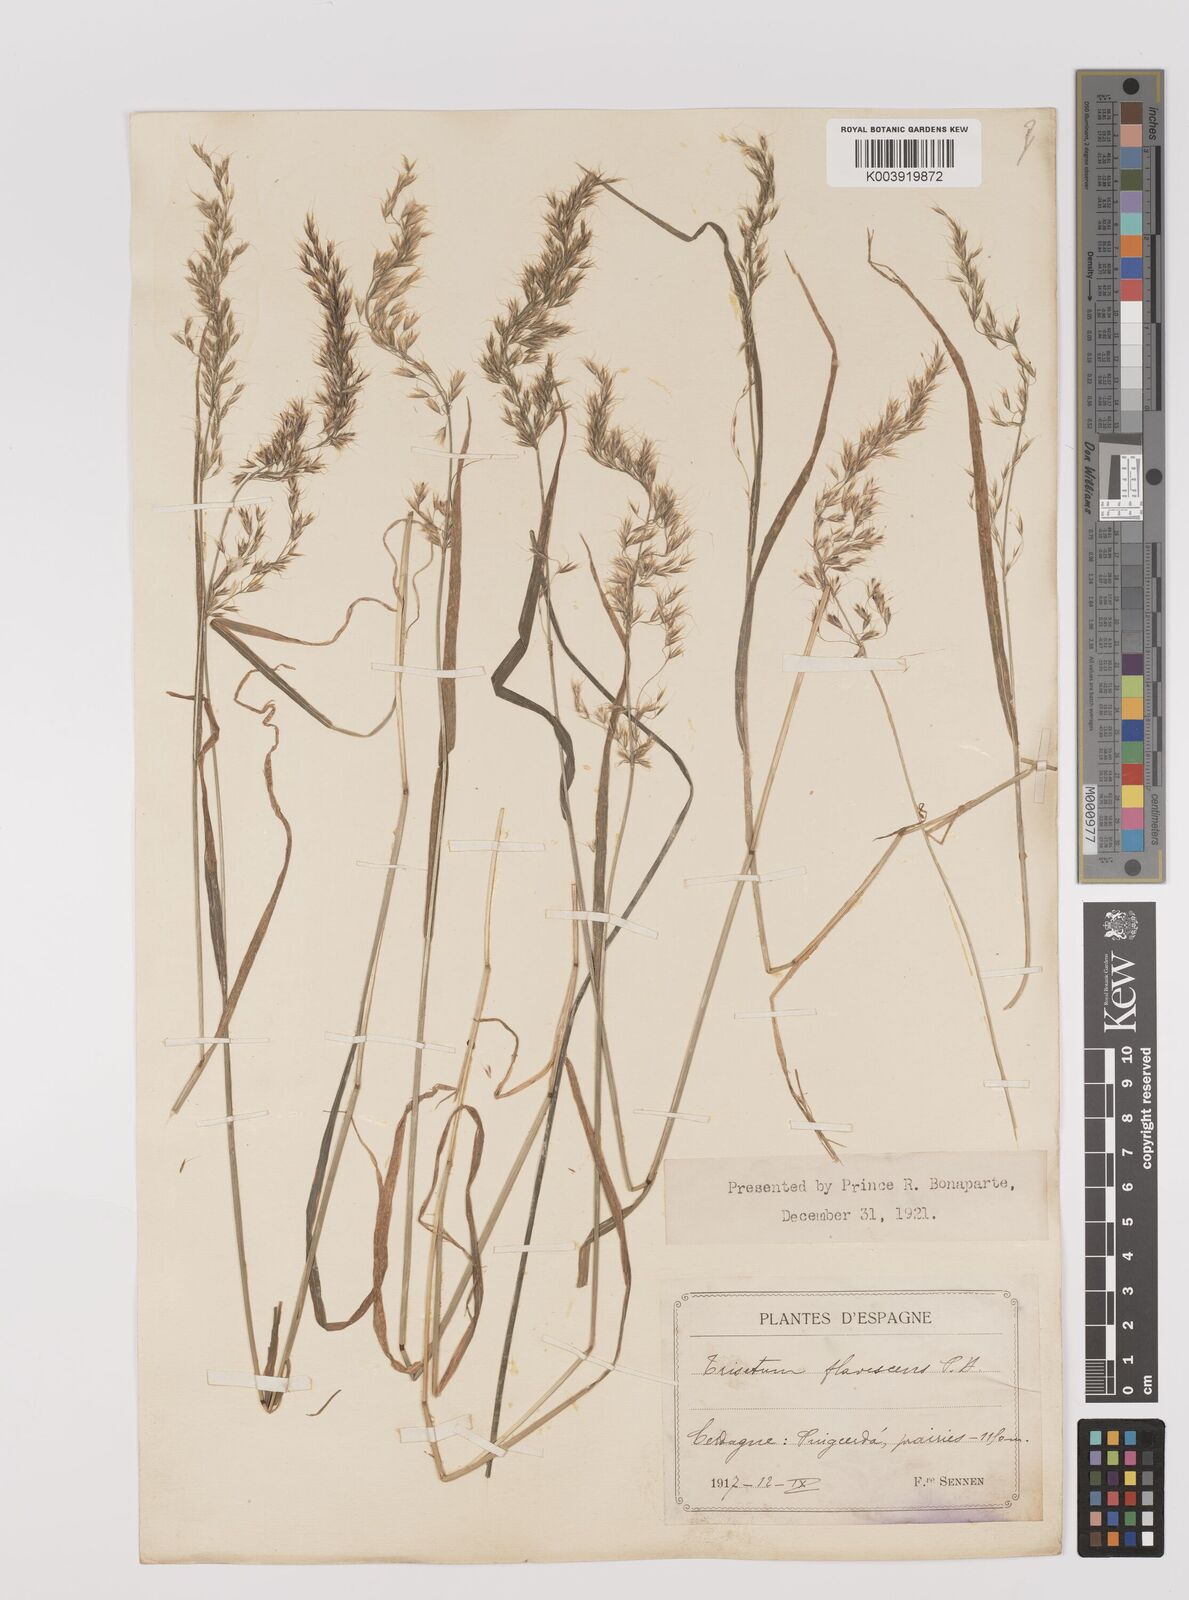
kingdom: Plantae
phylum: Tracheophyta
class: Liliopsida
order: Poales
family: Poaceae
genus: Trisetum
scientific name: Trisetum flavescens
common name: Yellow oat-grass
